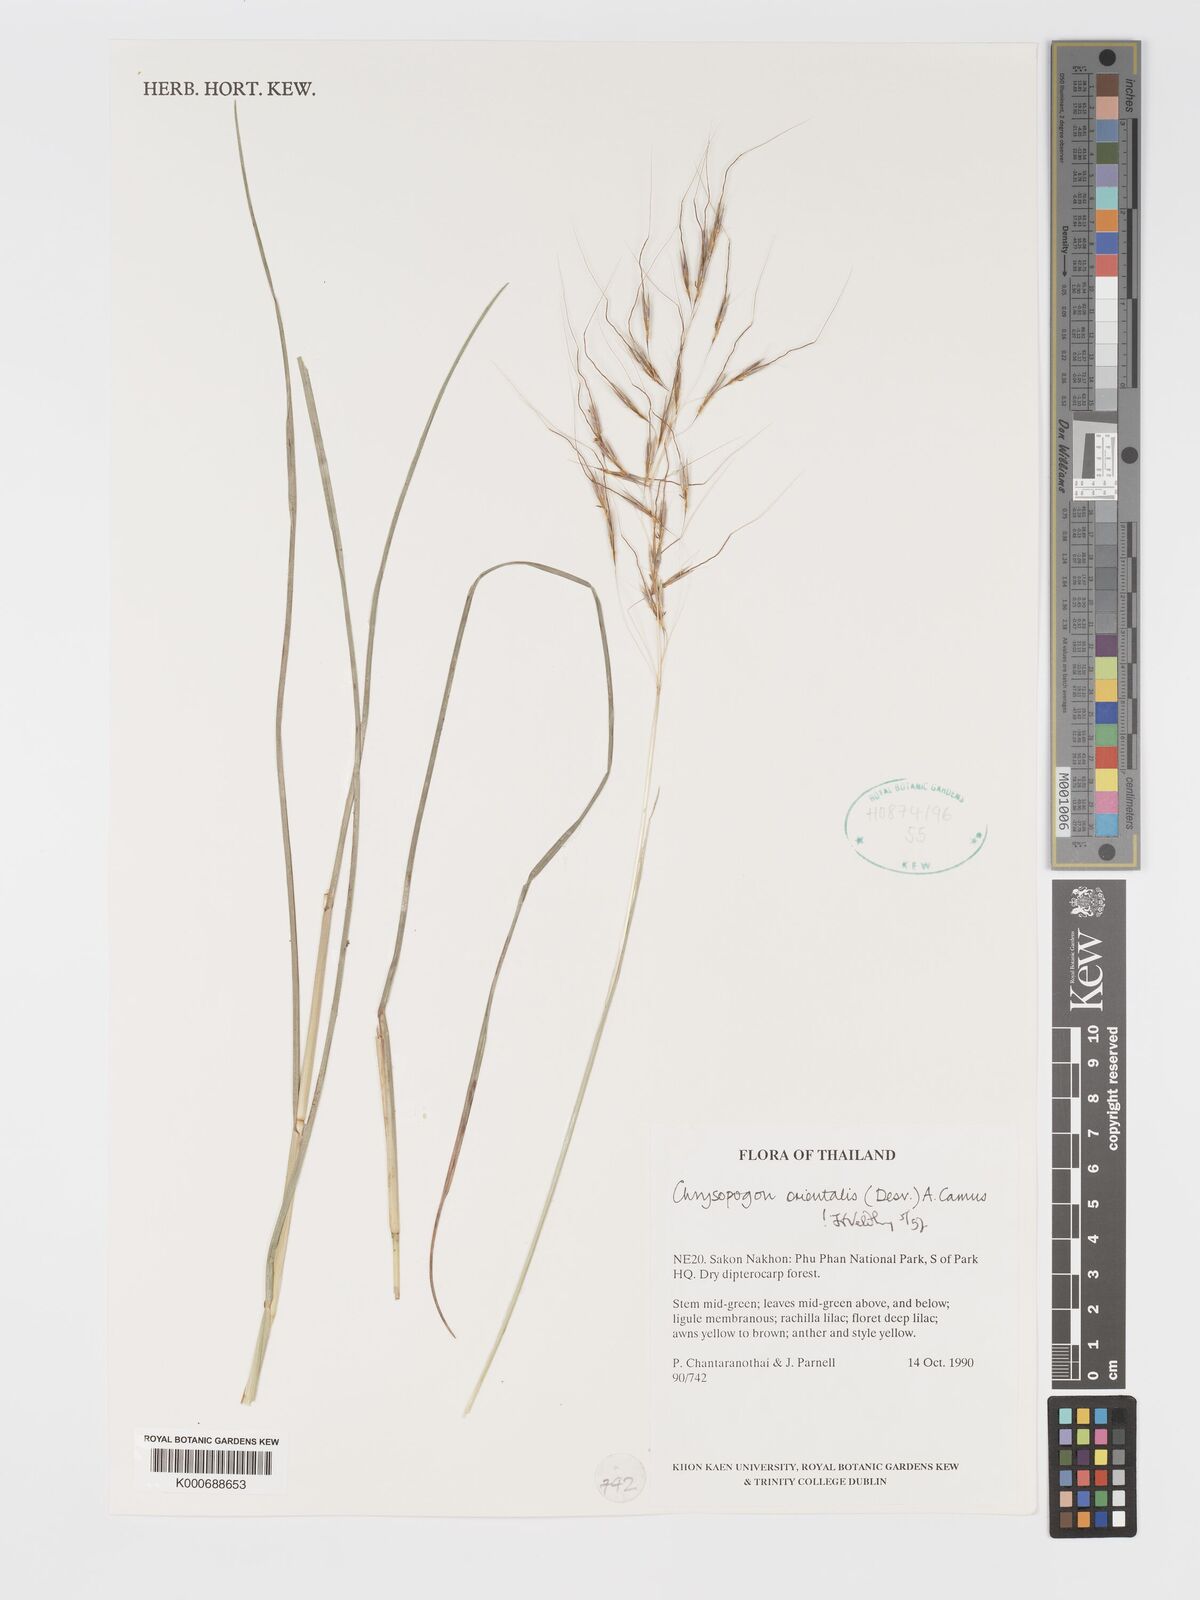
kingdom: Plantae
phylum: Tracheophyta
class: Liliopsida
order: Poales
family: Poaceae
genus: Chrysopogon
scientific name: Chrysopogon orientalis
